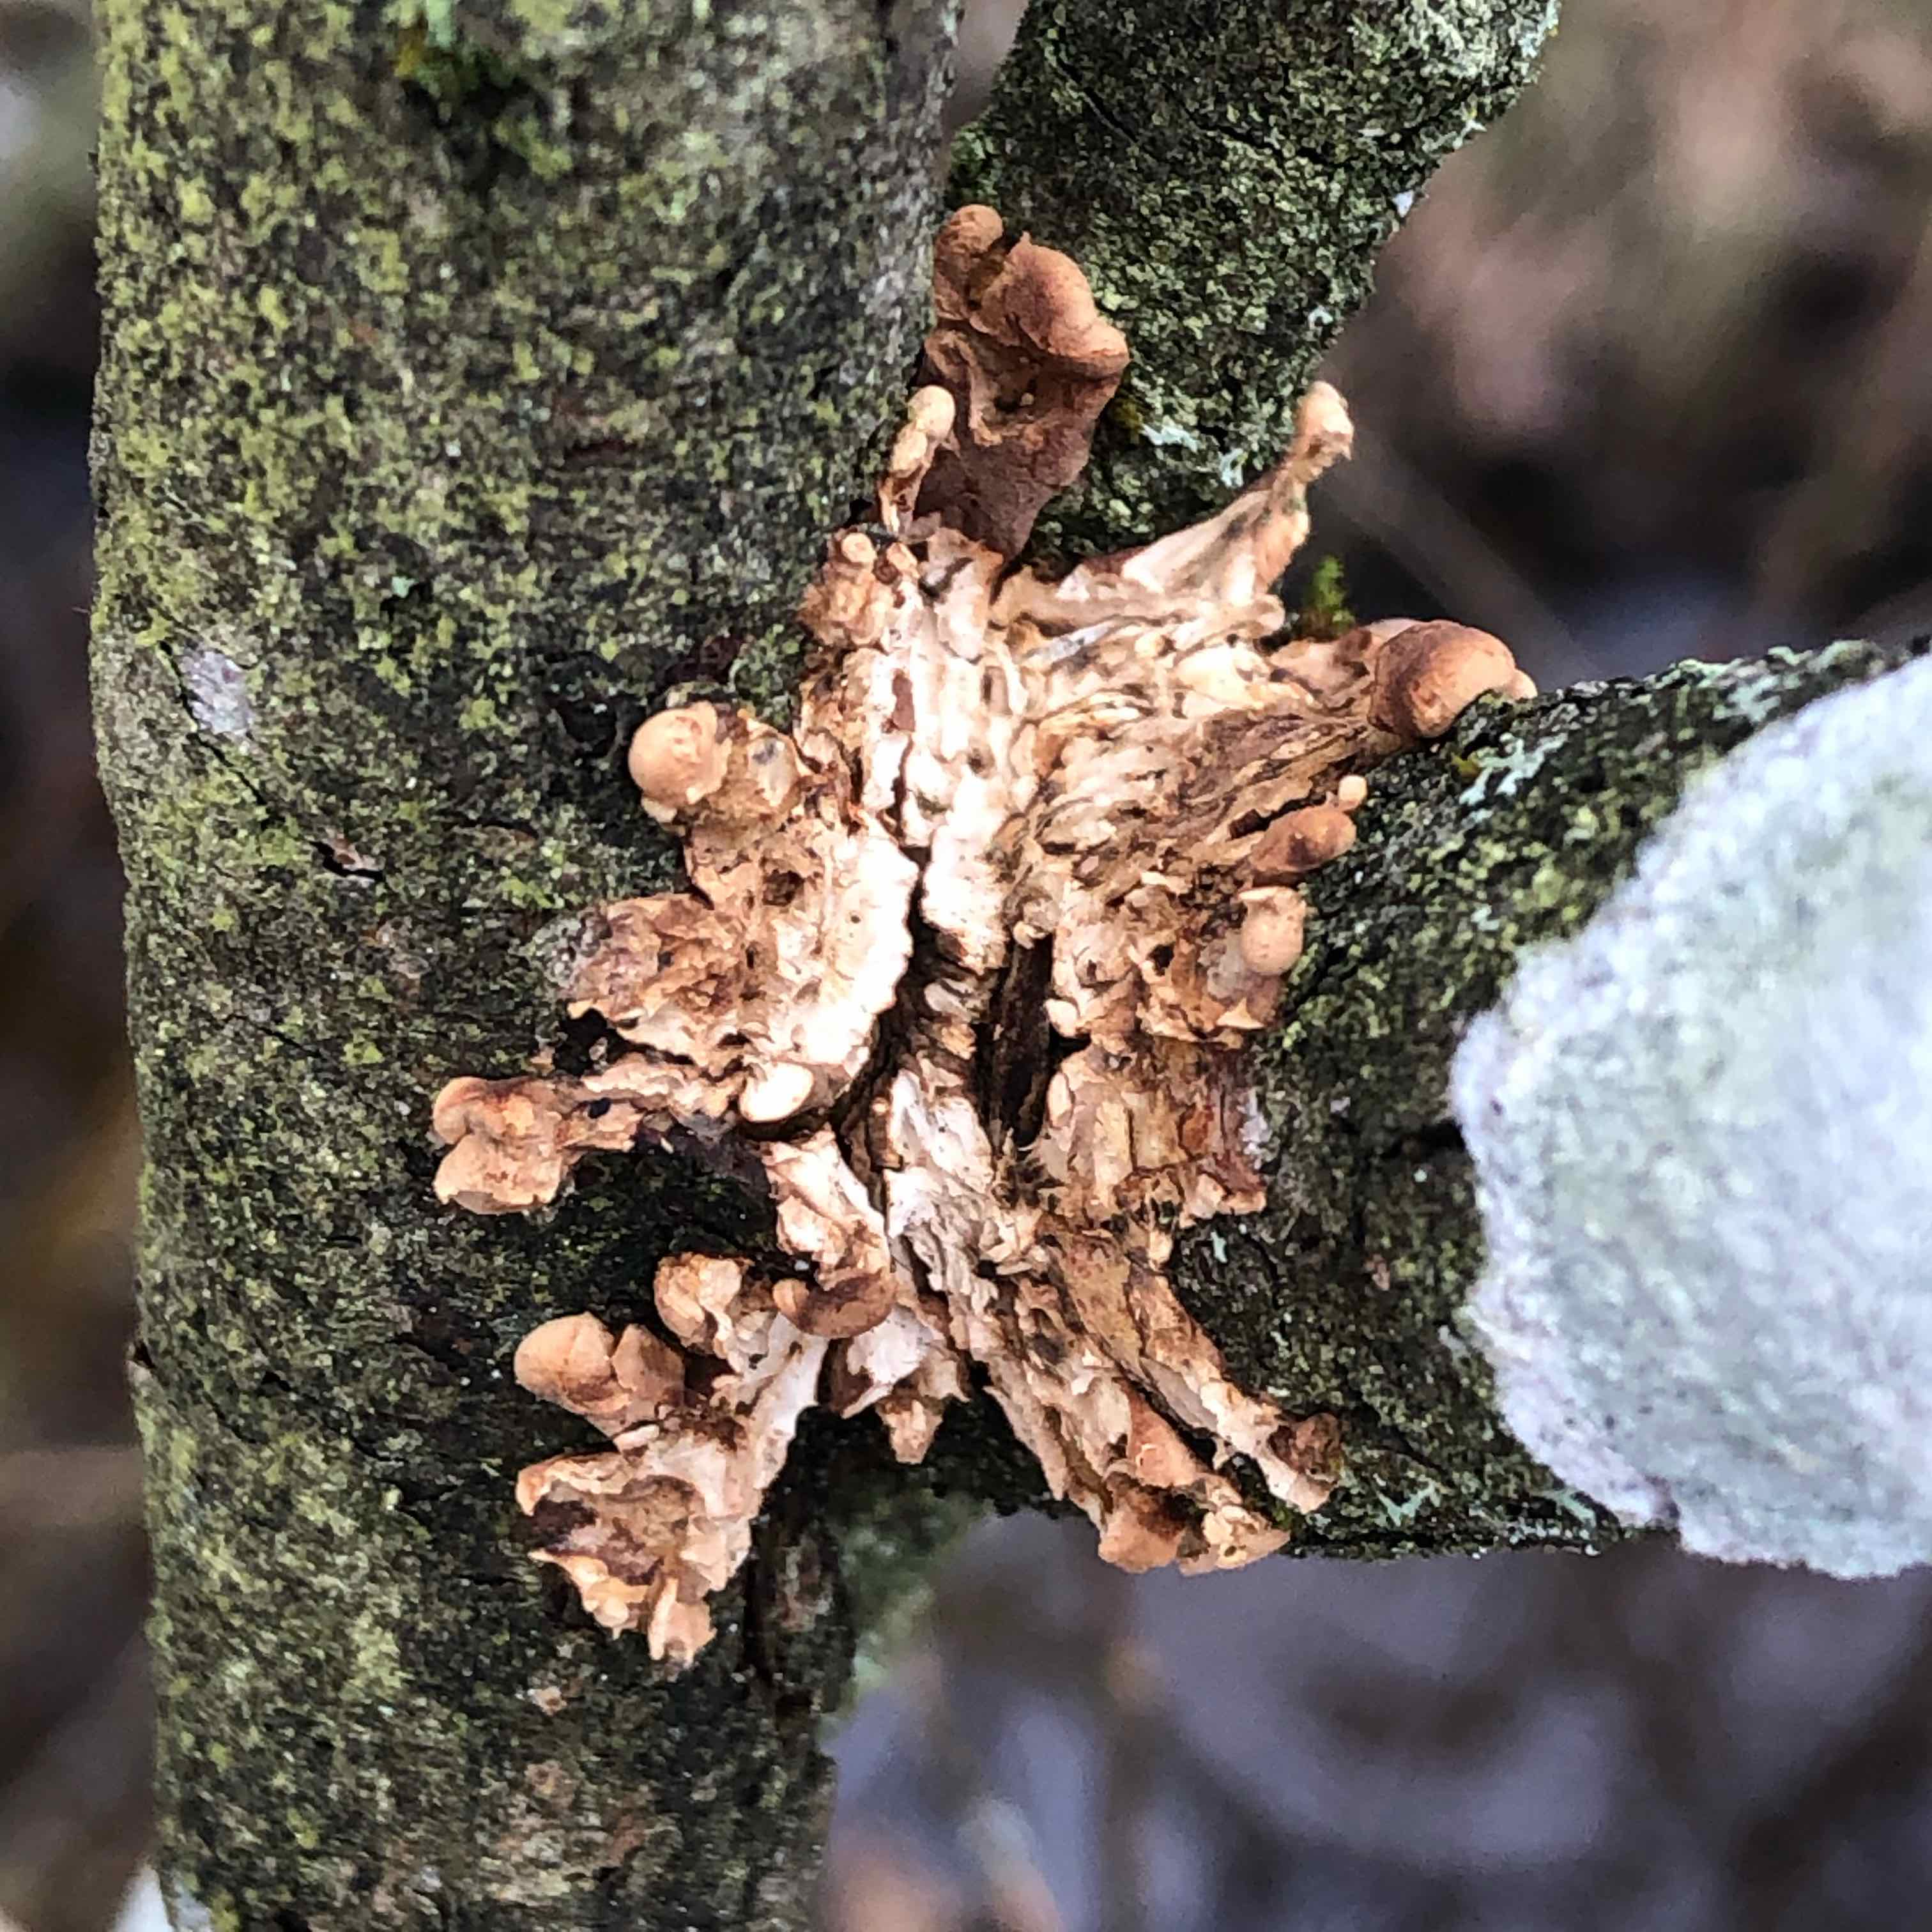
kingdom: Fungi
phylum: Ascomycota
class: Sordariomycetes
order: Hypocreales
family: Hypocreaceae
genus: Hypocreopsis
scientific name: Hypocreopsis lichenoides
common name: pilfinger
